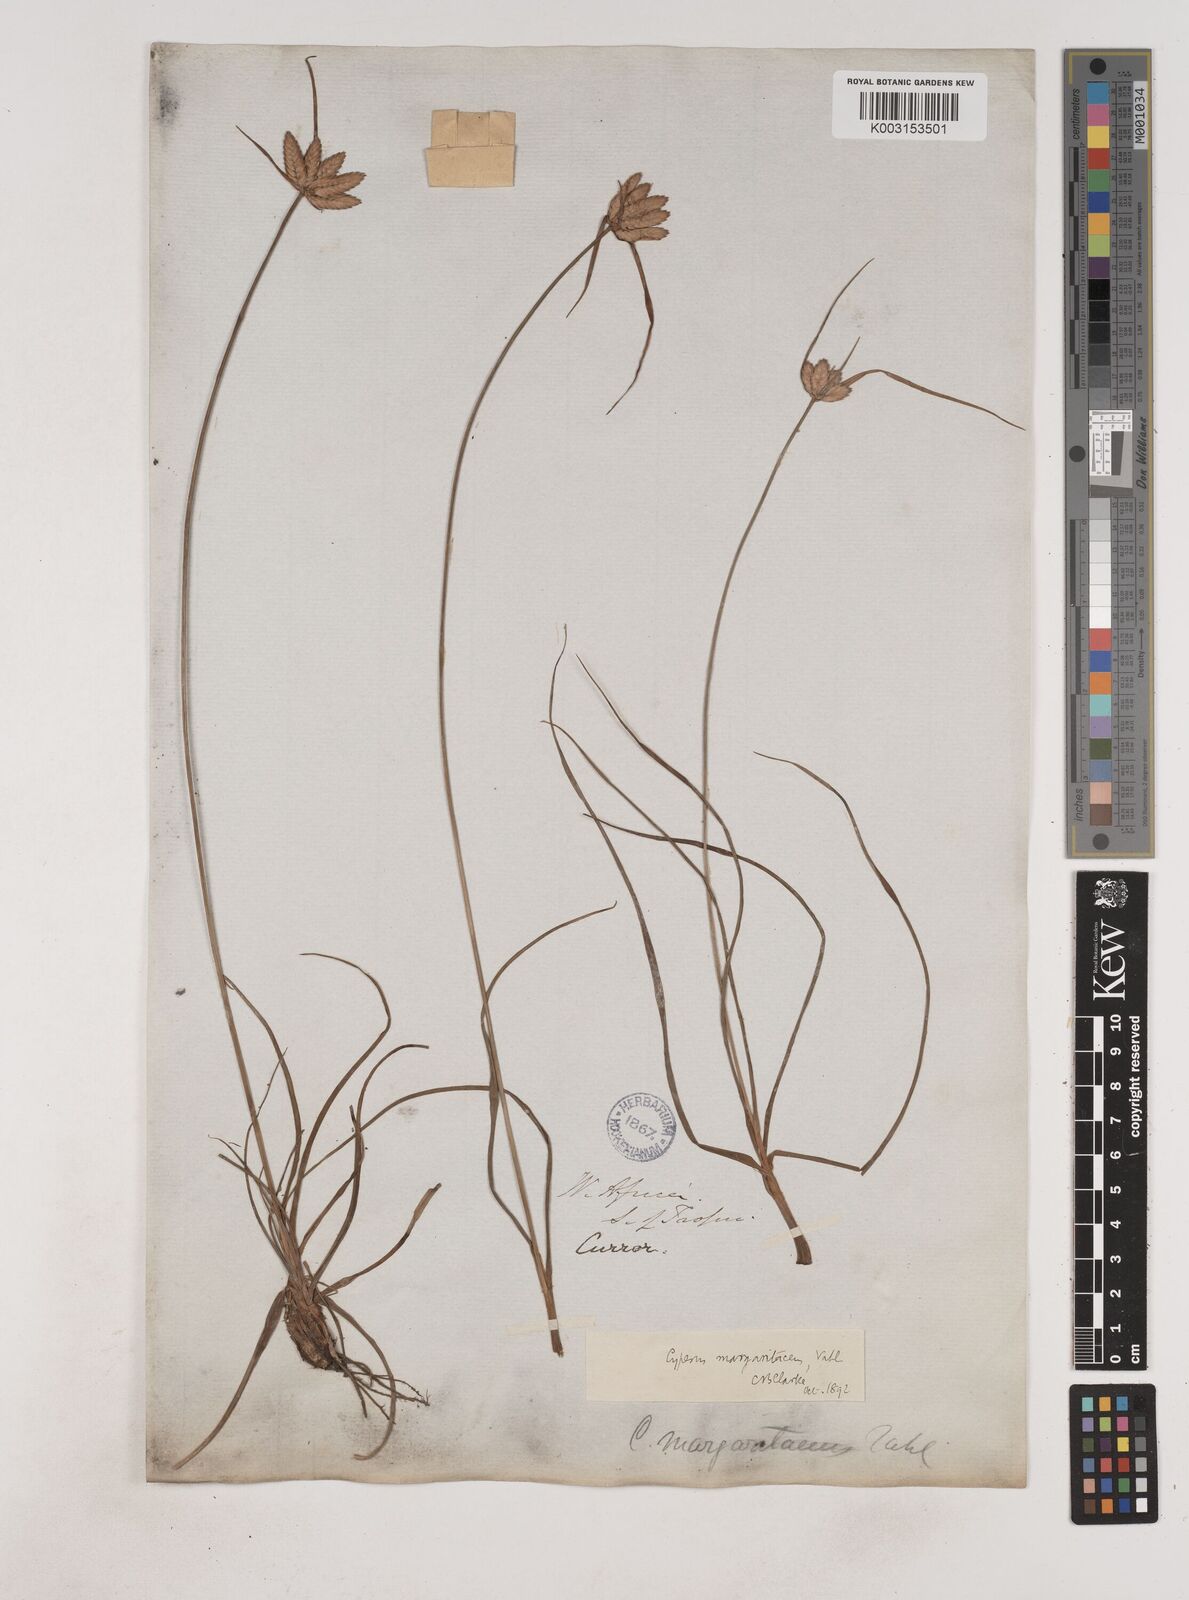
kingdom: Plantae
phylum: Tracheophyta
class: Liliopsida
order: Poales
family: Cyperaceae
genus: Cyperus
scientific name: Cyperus margaritaceus
